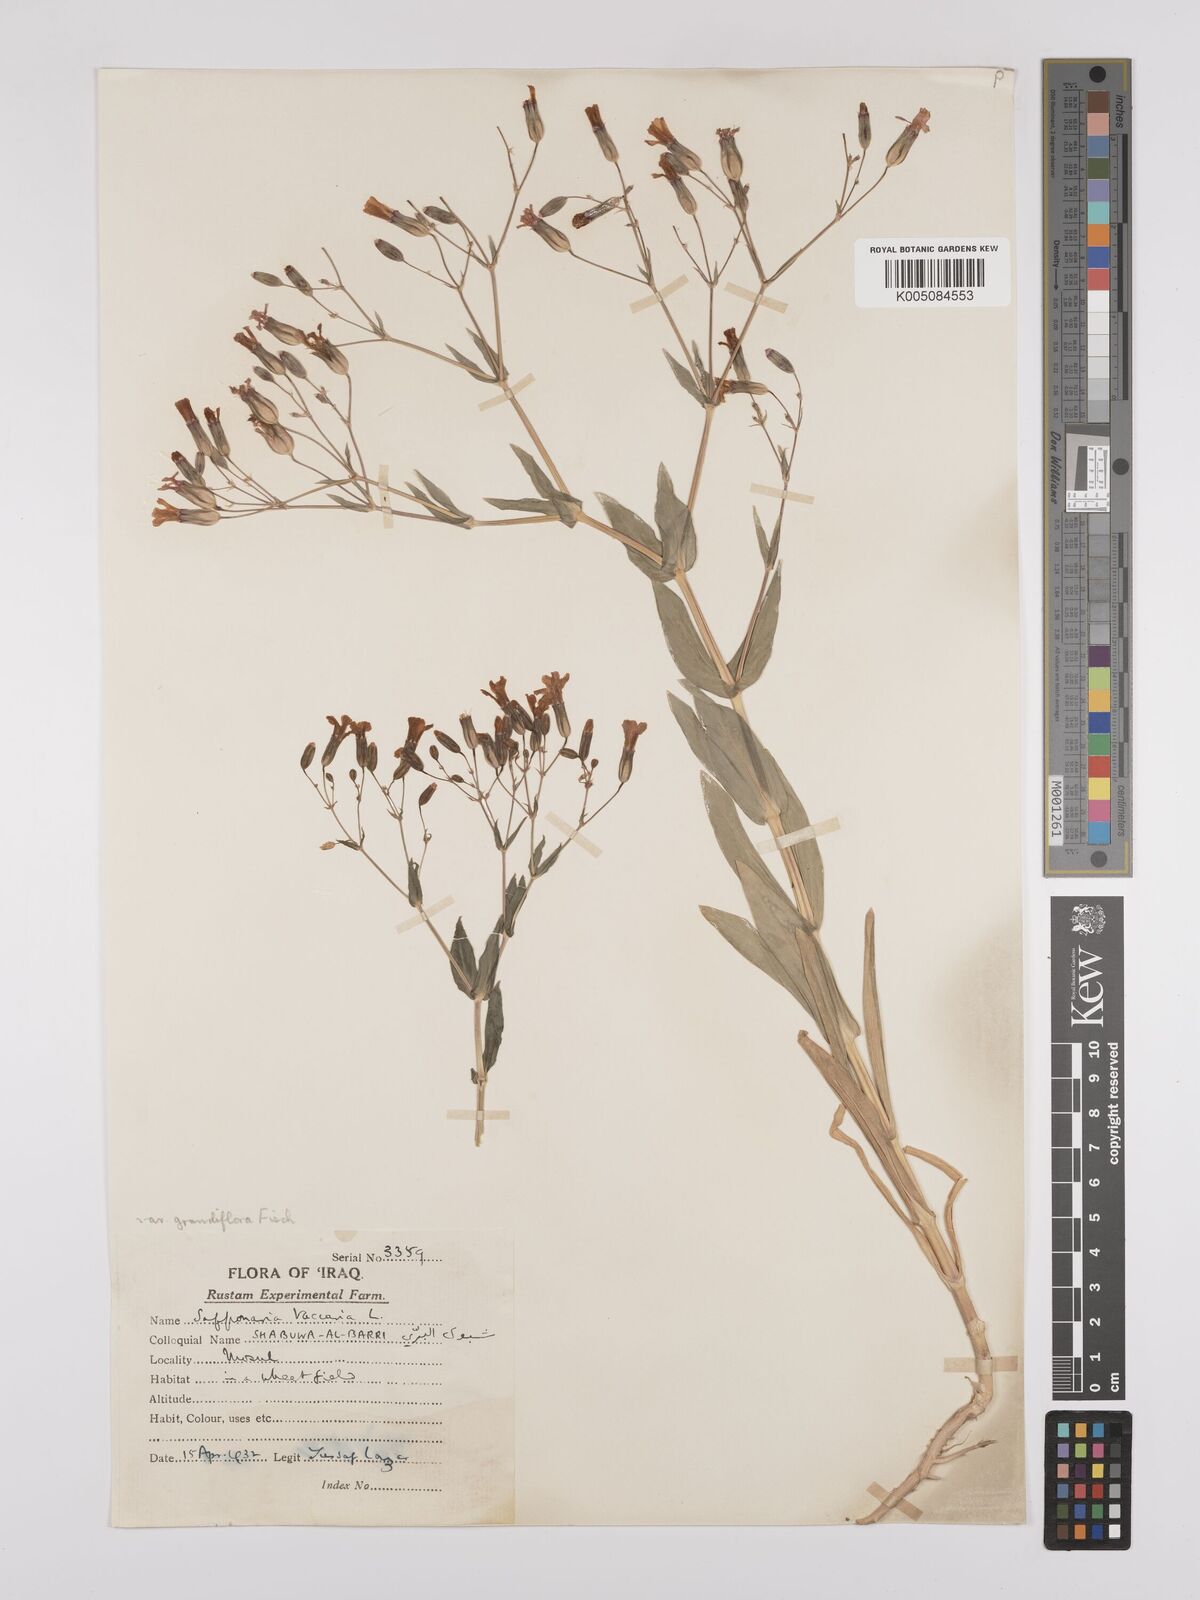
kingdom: Plantae
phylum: Tracheophyta
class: Magnoliopsida
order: Caryophyllales
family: Caryophyllaceae
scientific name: Caryophyllaceae
